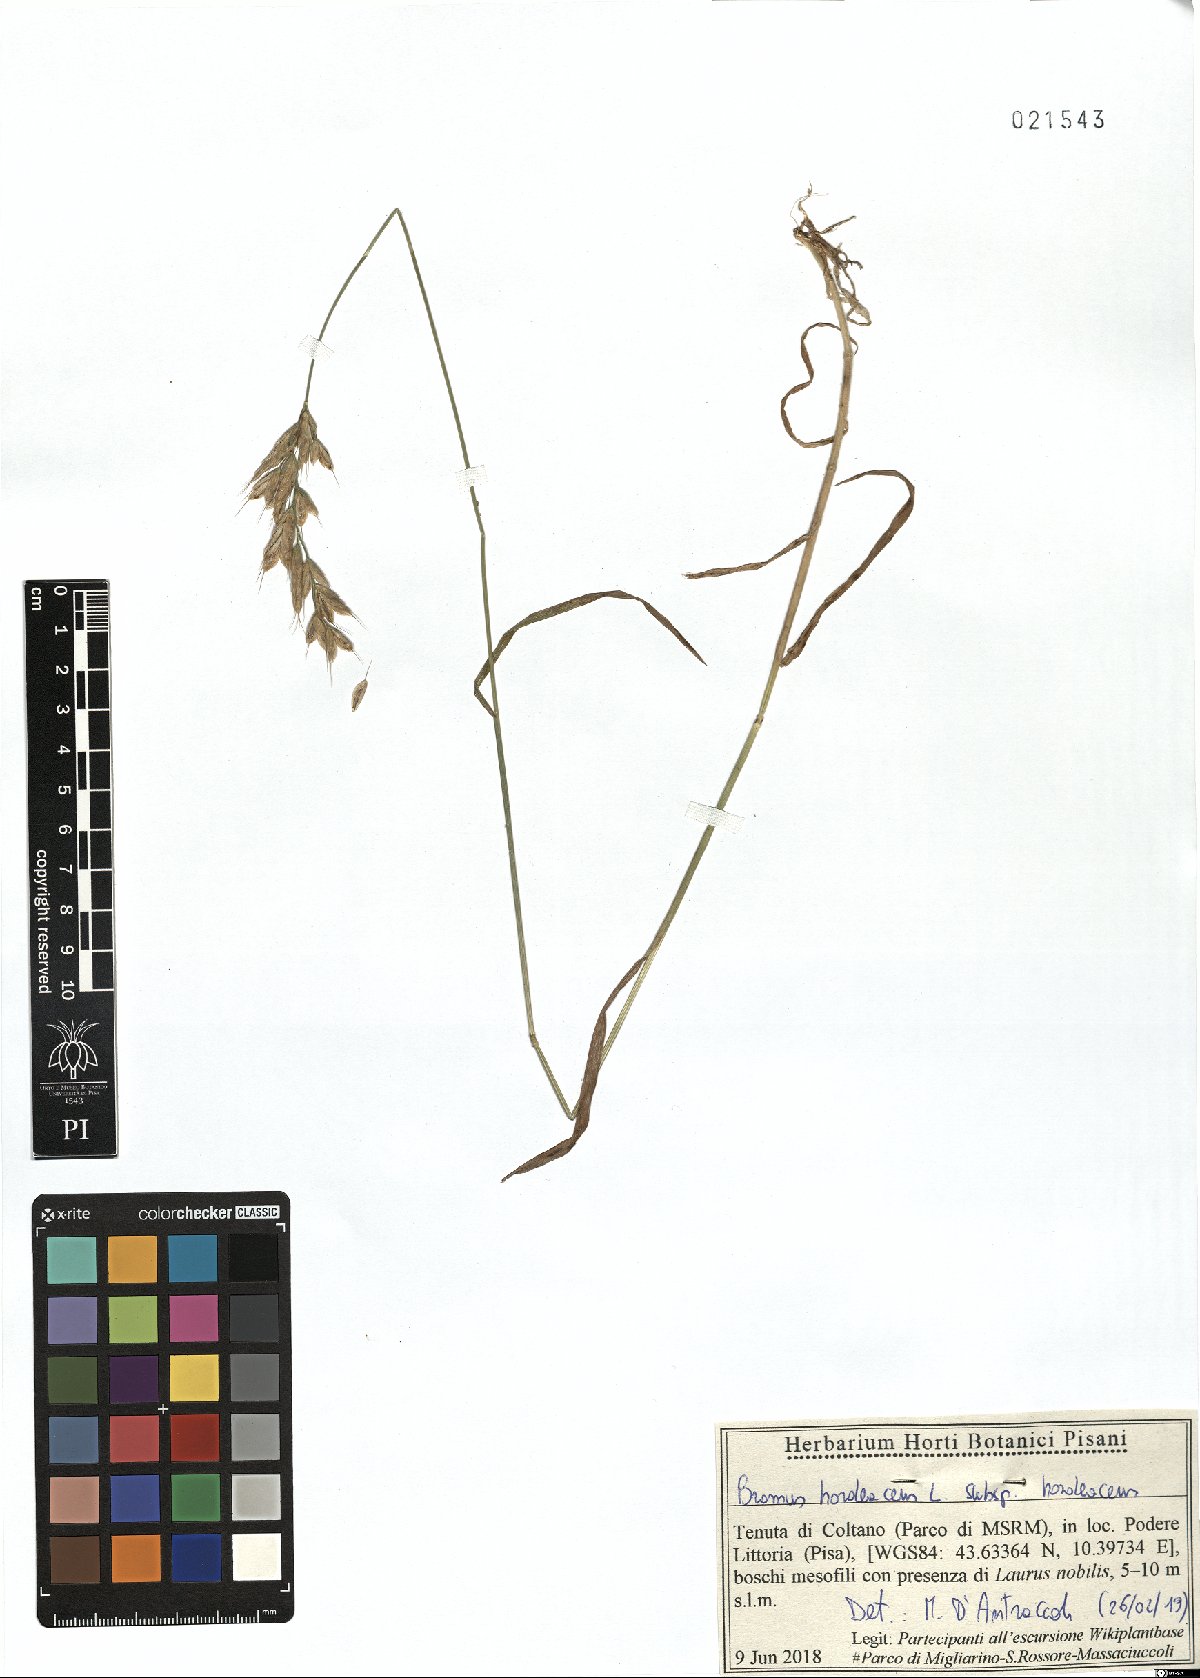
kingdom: Plantae
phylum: Tracheophyta
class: Liliopsida
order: Poales
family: Poaceae
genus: Bromus
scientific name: Bromus hordeaceus
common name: Soft brome
